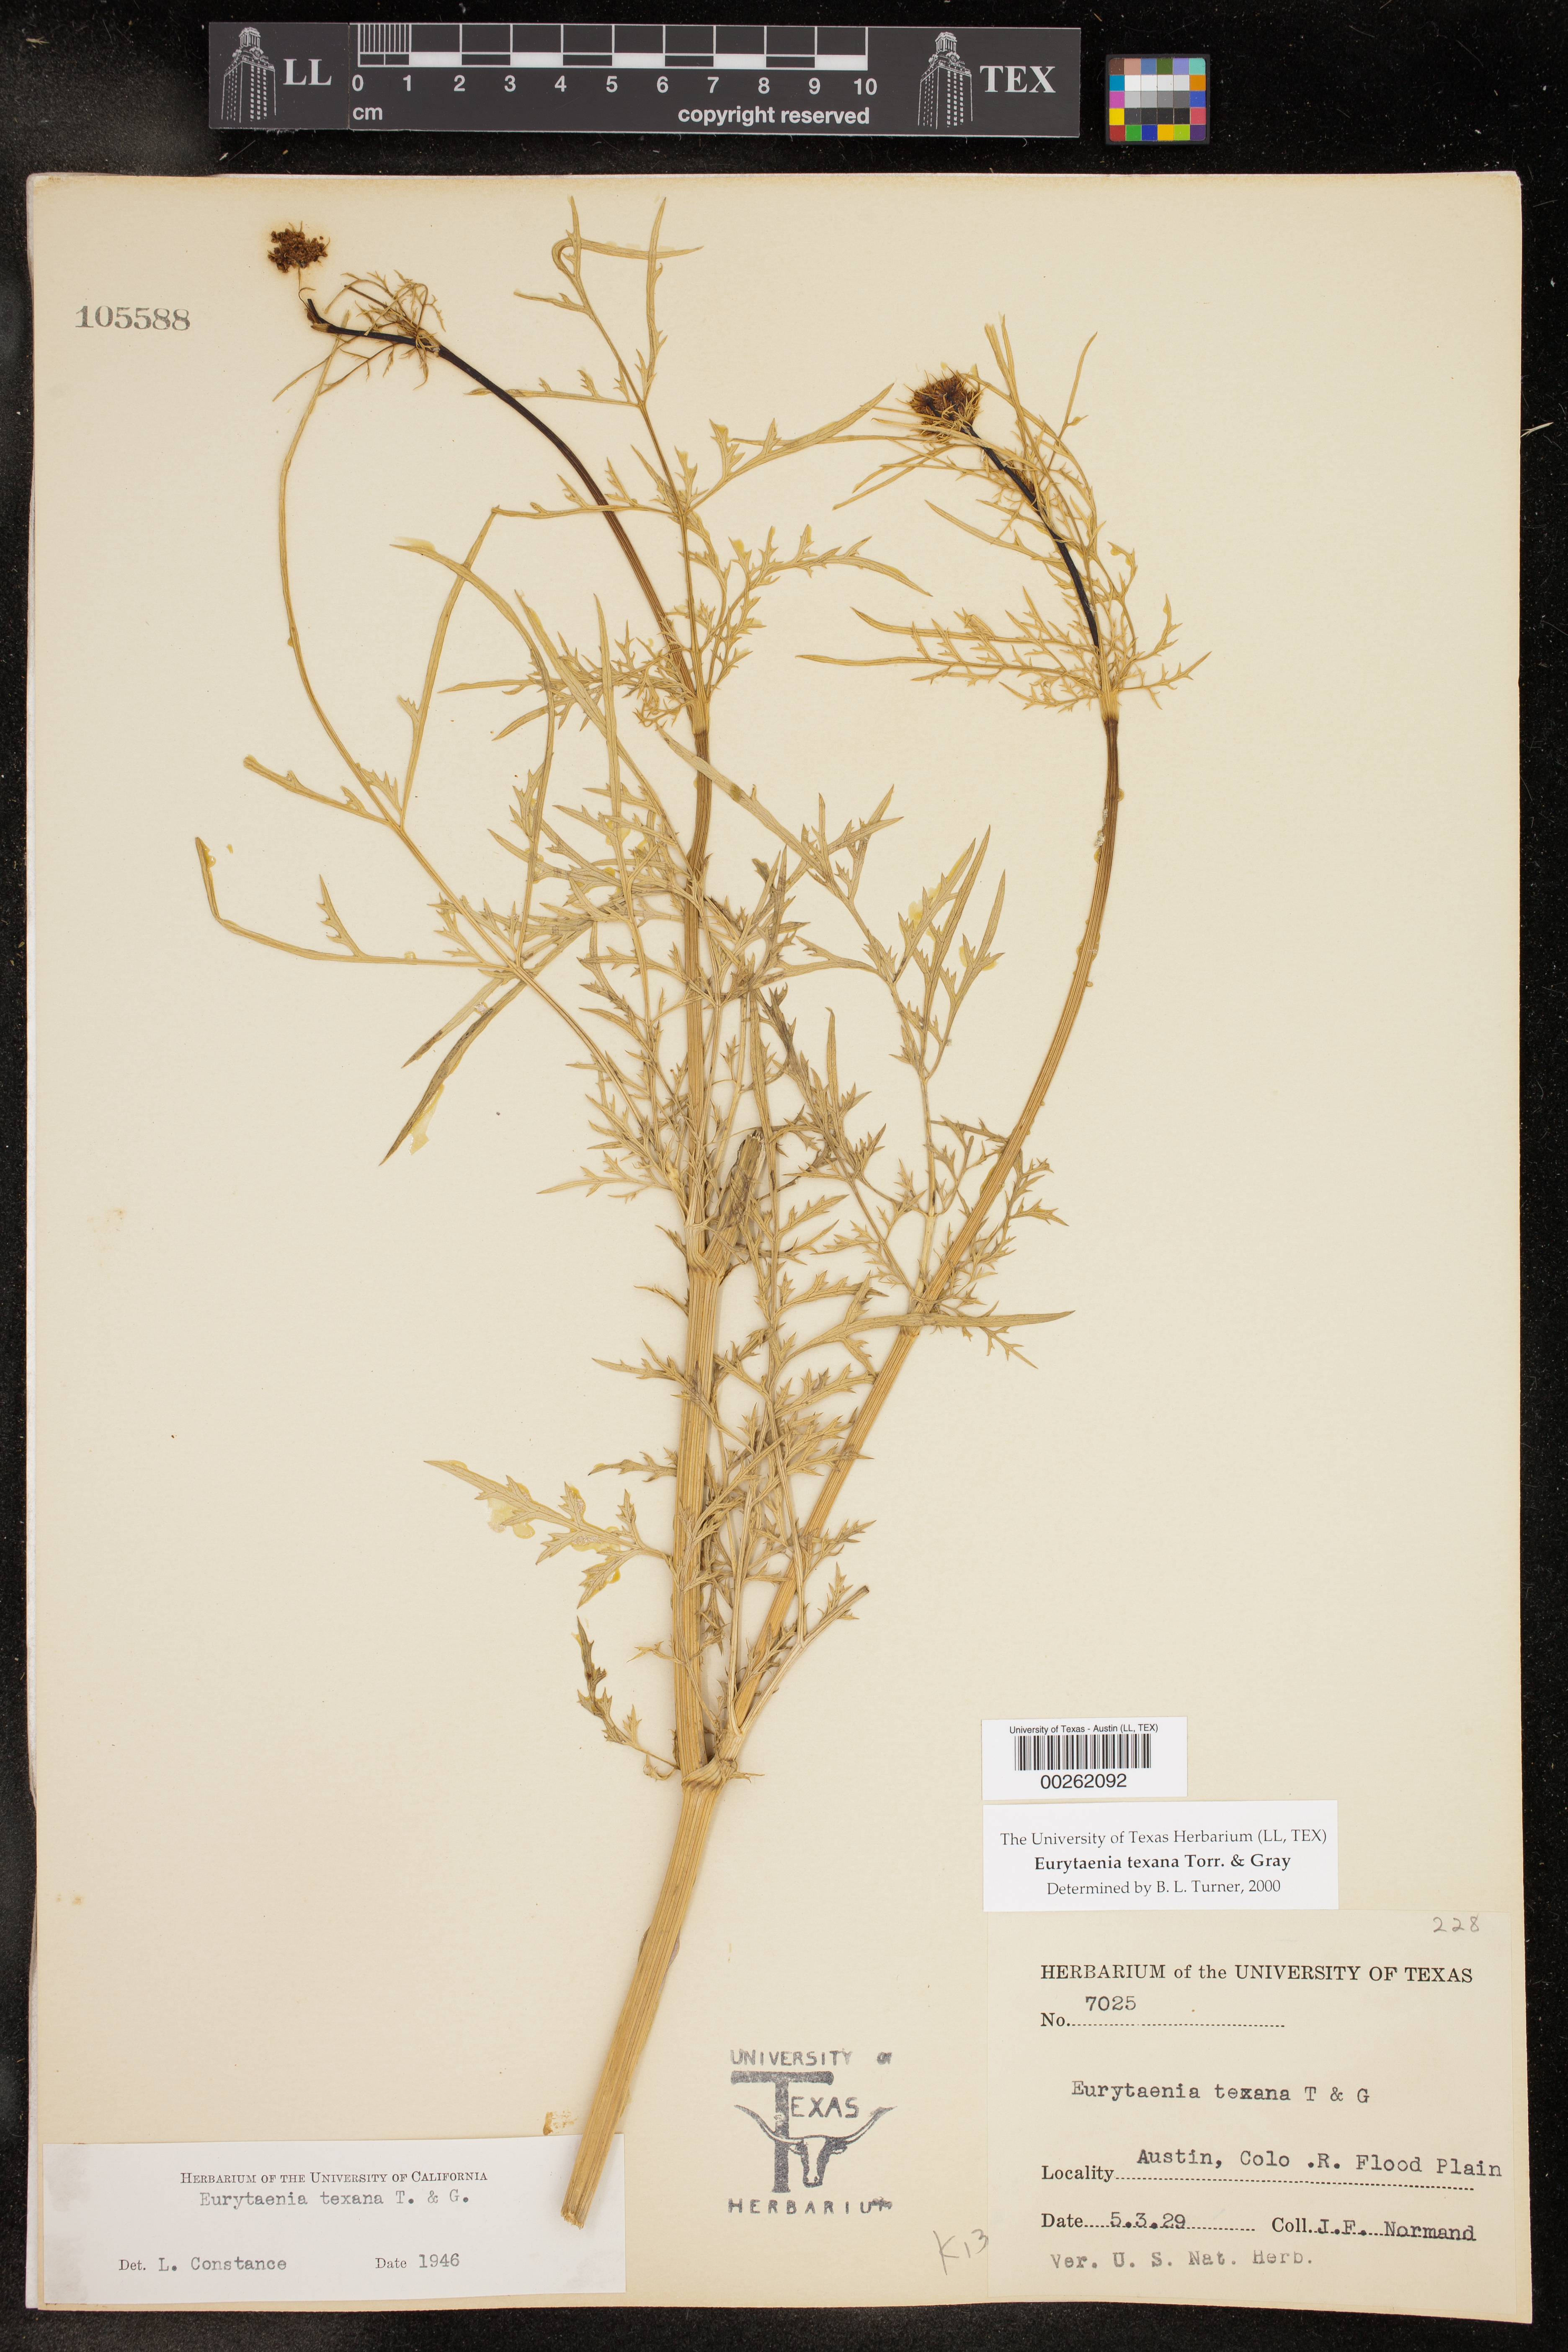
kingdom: Plantae
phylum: Tracheophyta
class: Magnoliopsida
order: Apiales
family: Apiaceae
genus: Eurytaenia
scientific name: Eurytaenia texana
